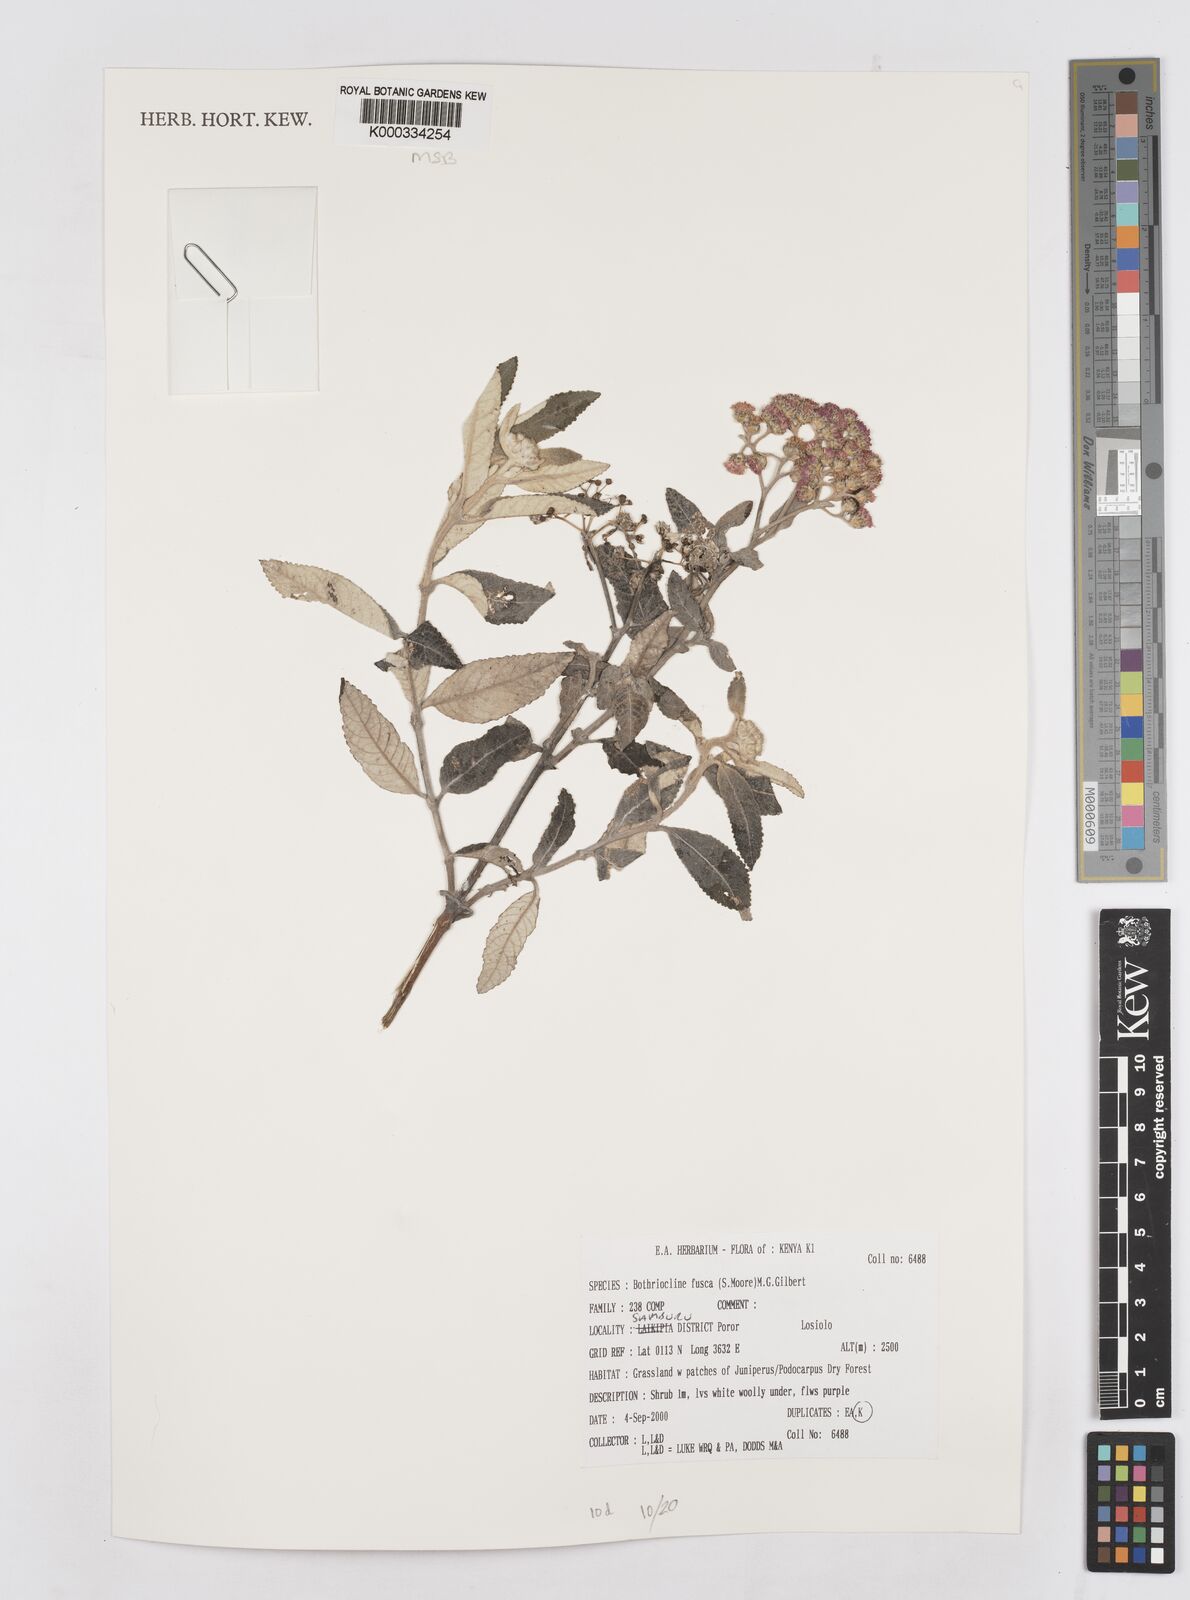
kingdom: Plantae
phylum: Tracheophyta
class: Magnoliopsida
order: Asterales
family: Asteraceae
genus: Bothriocline
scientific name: Bothriocline fusca
